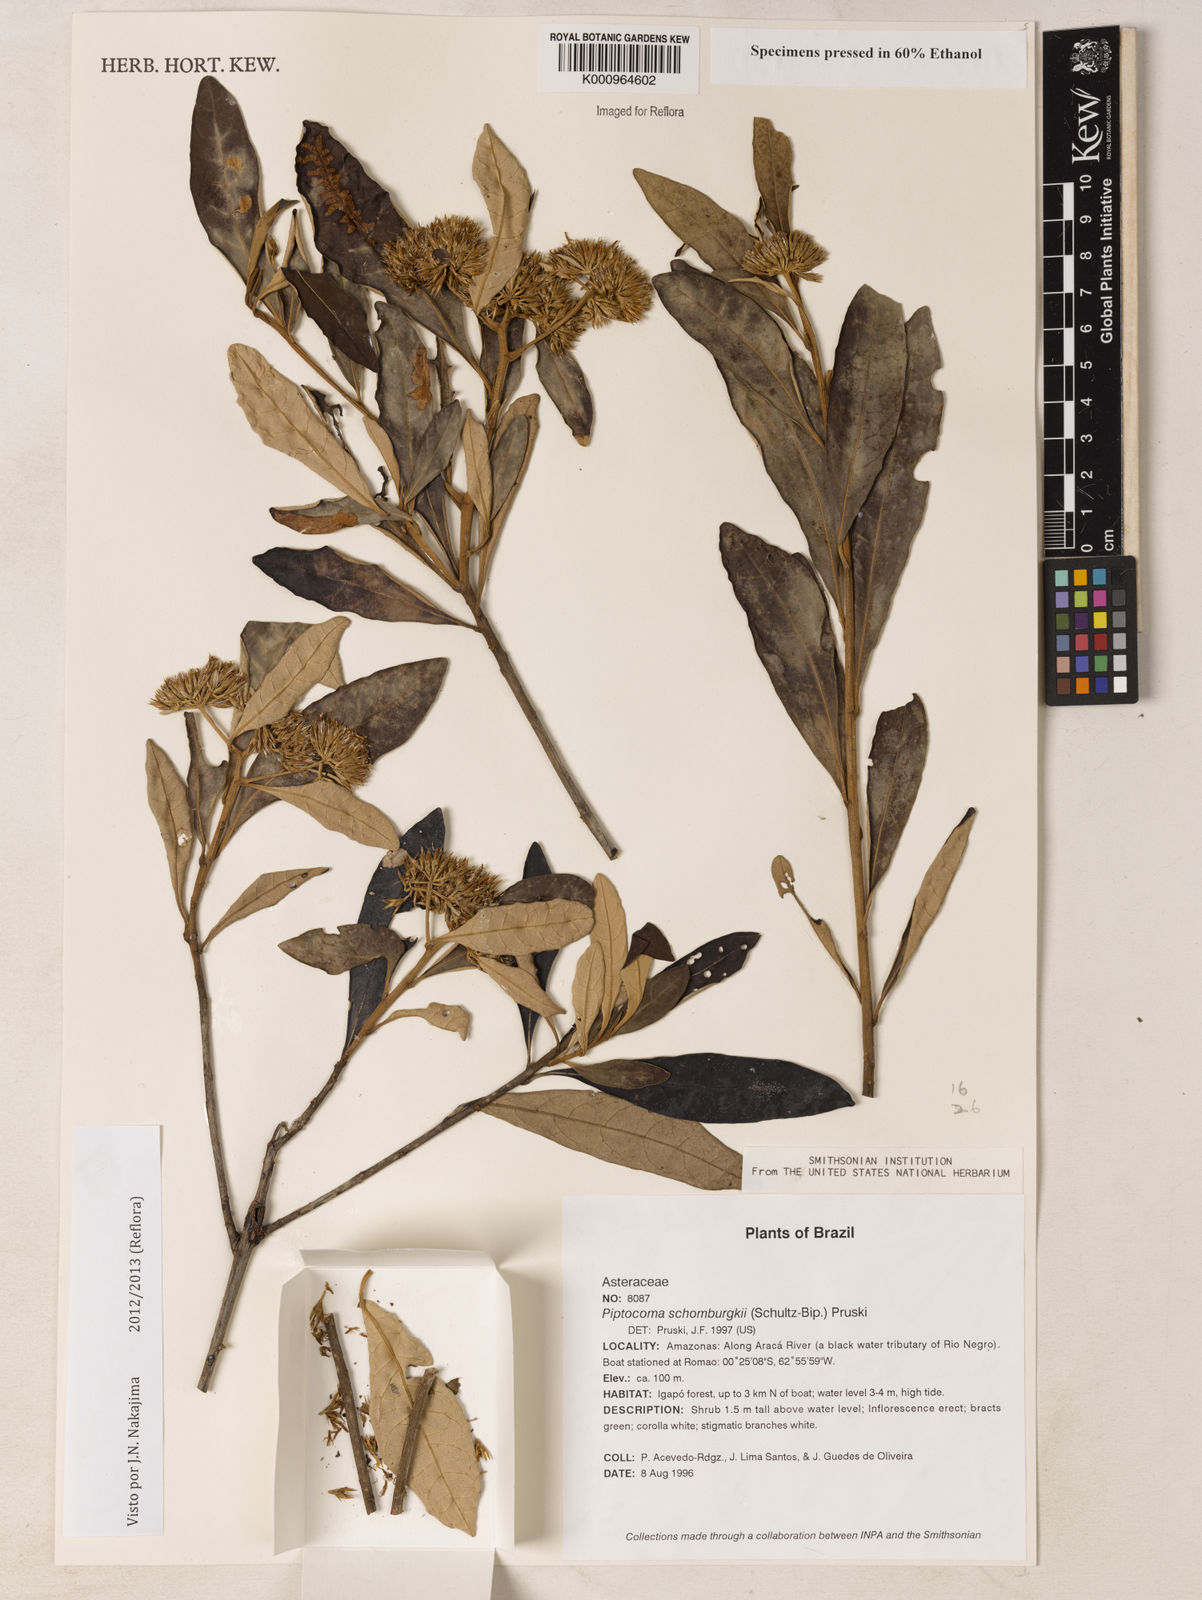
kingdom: Plantae
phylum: Tracheophyta
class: Magnoliopsida
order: Asterales
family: Asteraceae
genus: Piptocoma
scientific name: Piptocoma schomburgkii
